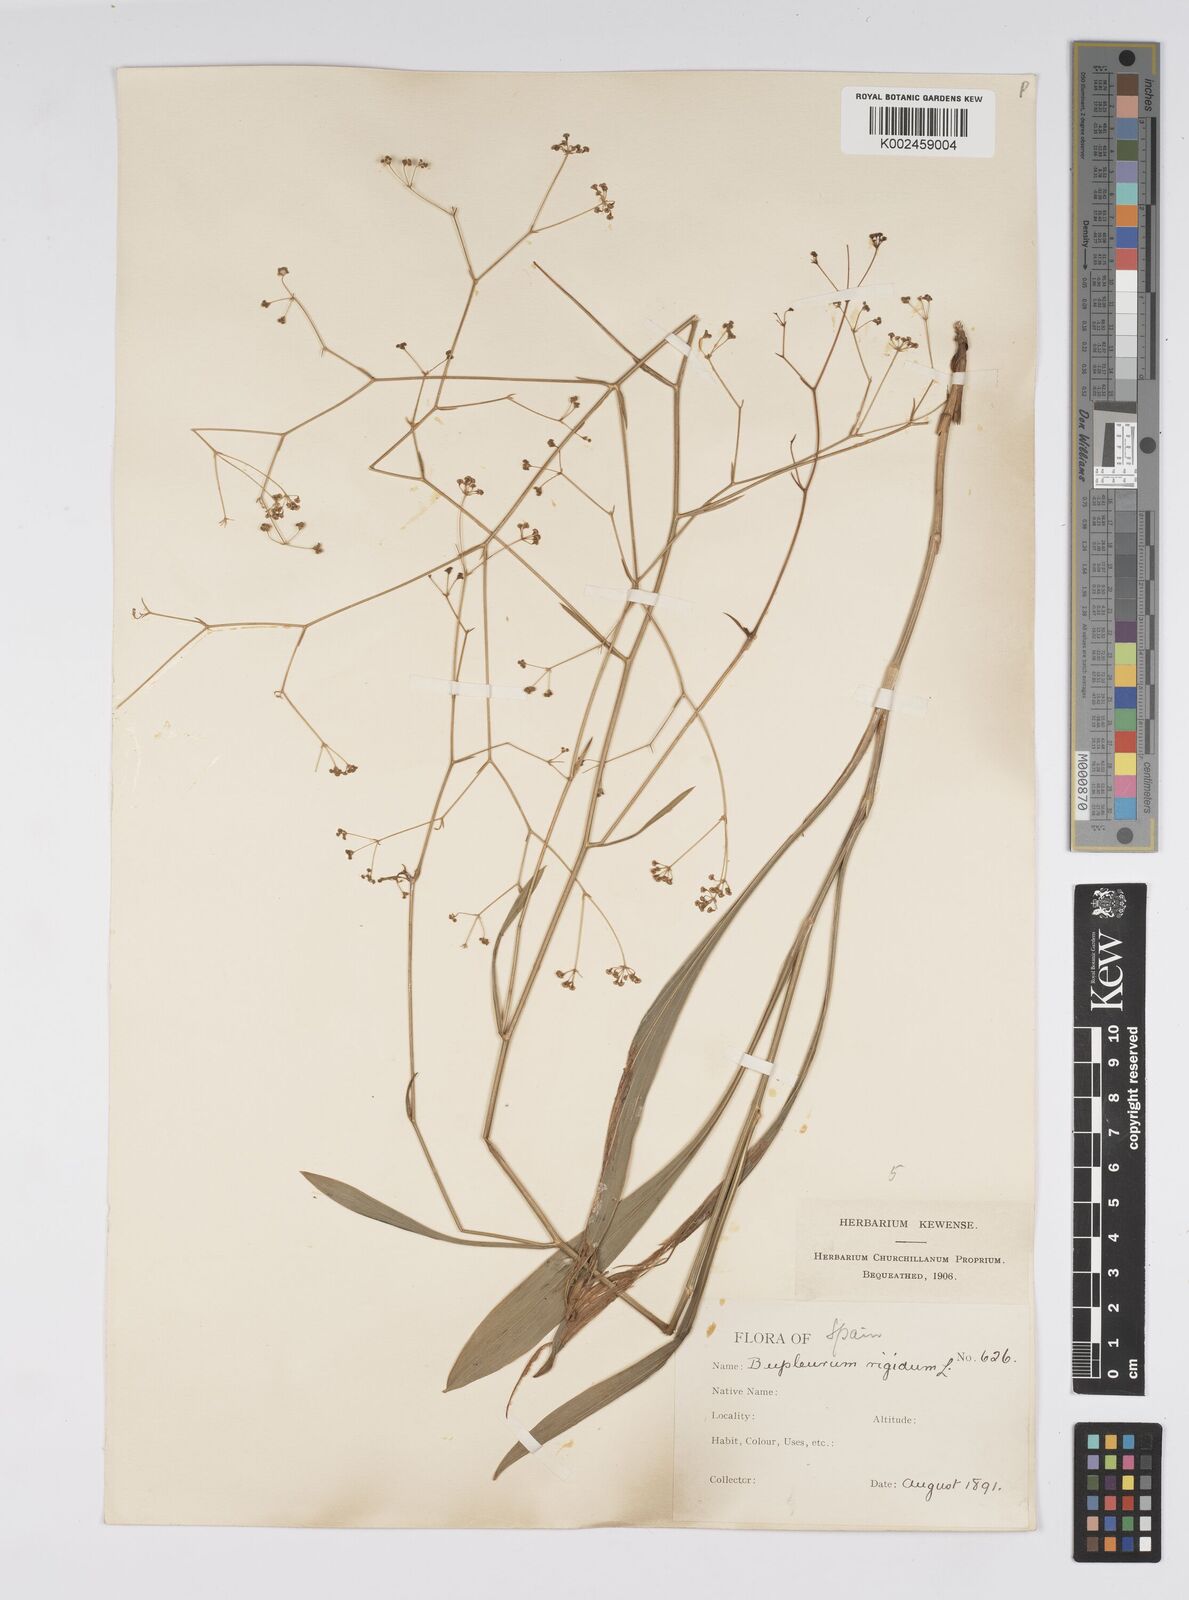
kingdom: Plantae
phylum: Tracheophyta
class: Magnoliopsida
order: Apiales
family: Apiaceae
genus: Bupleurum
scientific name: Bupleurum rigidum
